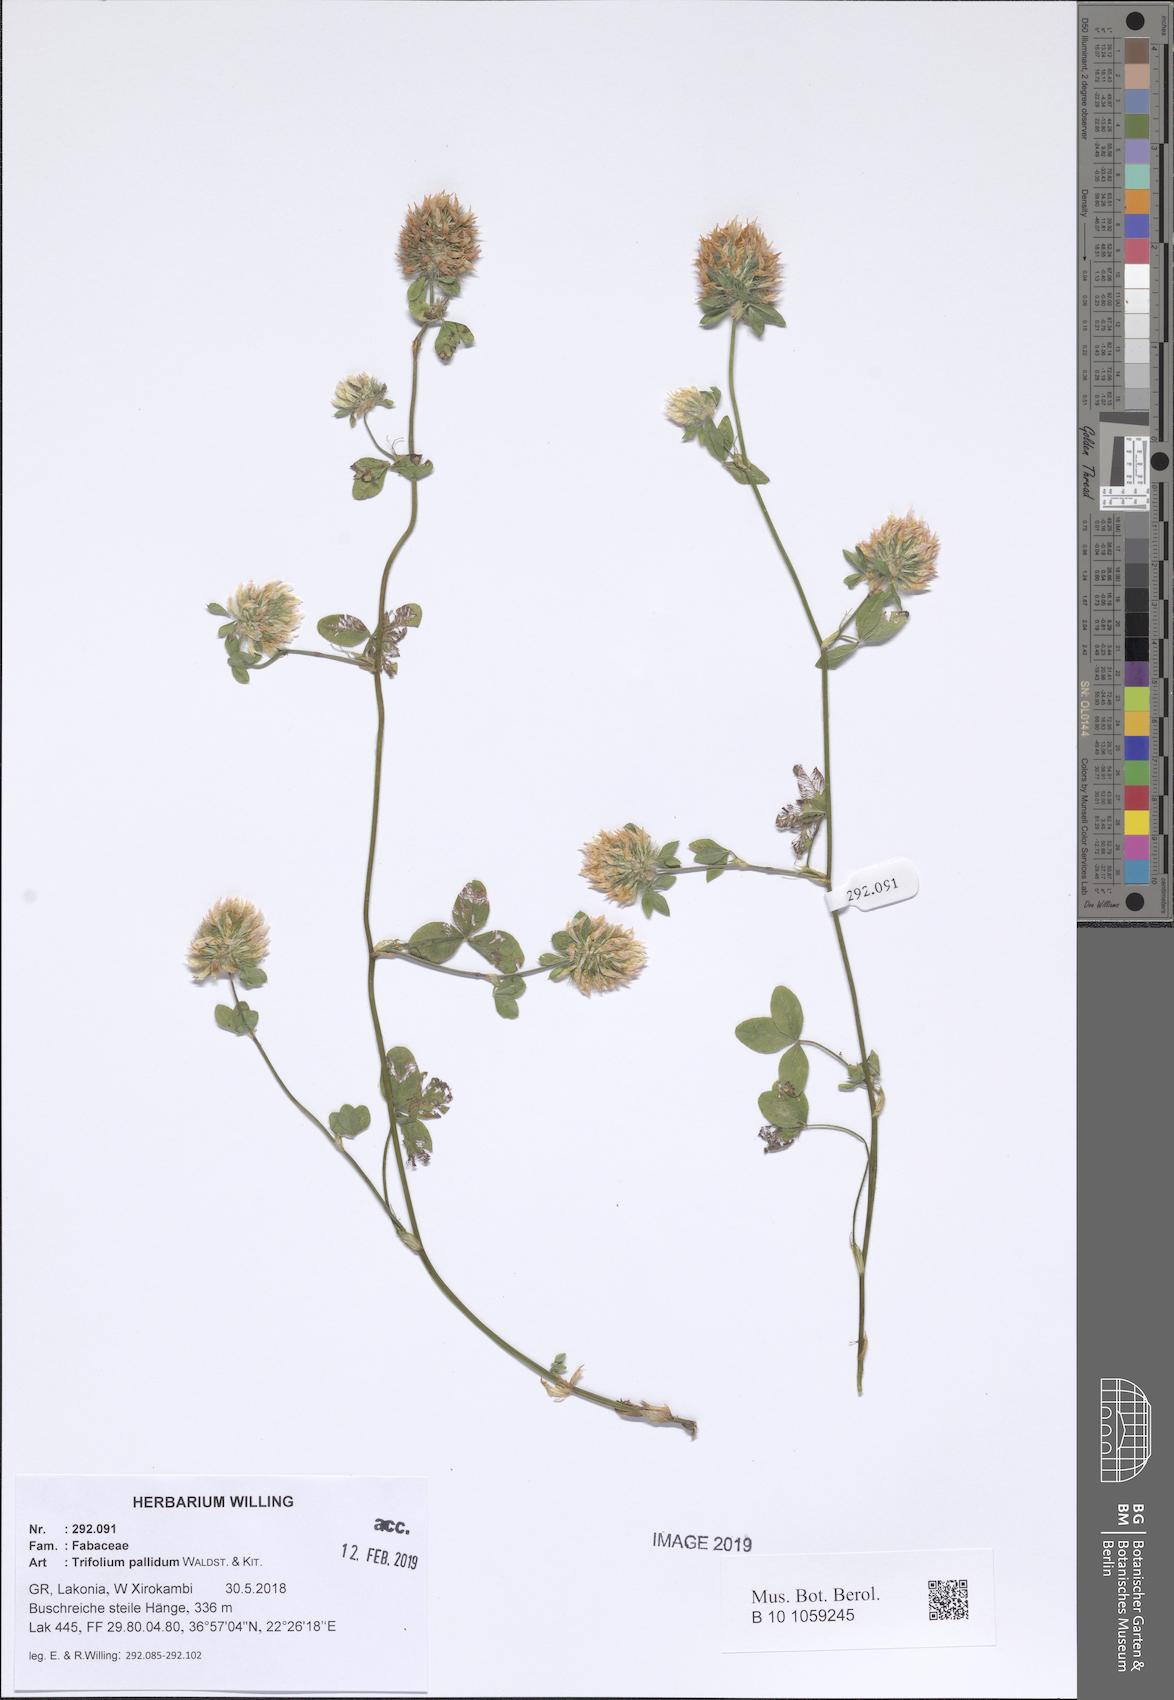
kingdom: Plantae
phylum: Tracheophyta
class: Magnoliopsida
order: Fabales
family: Fabaceae
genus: Trifolium
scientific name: Trifolium pallidum
